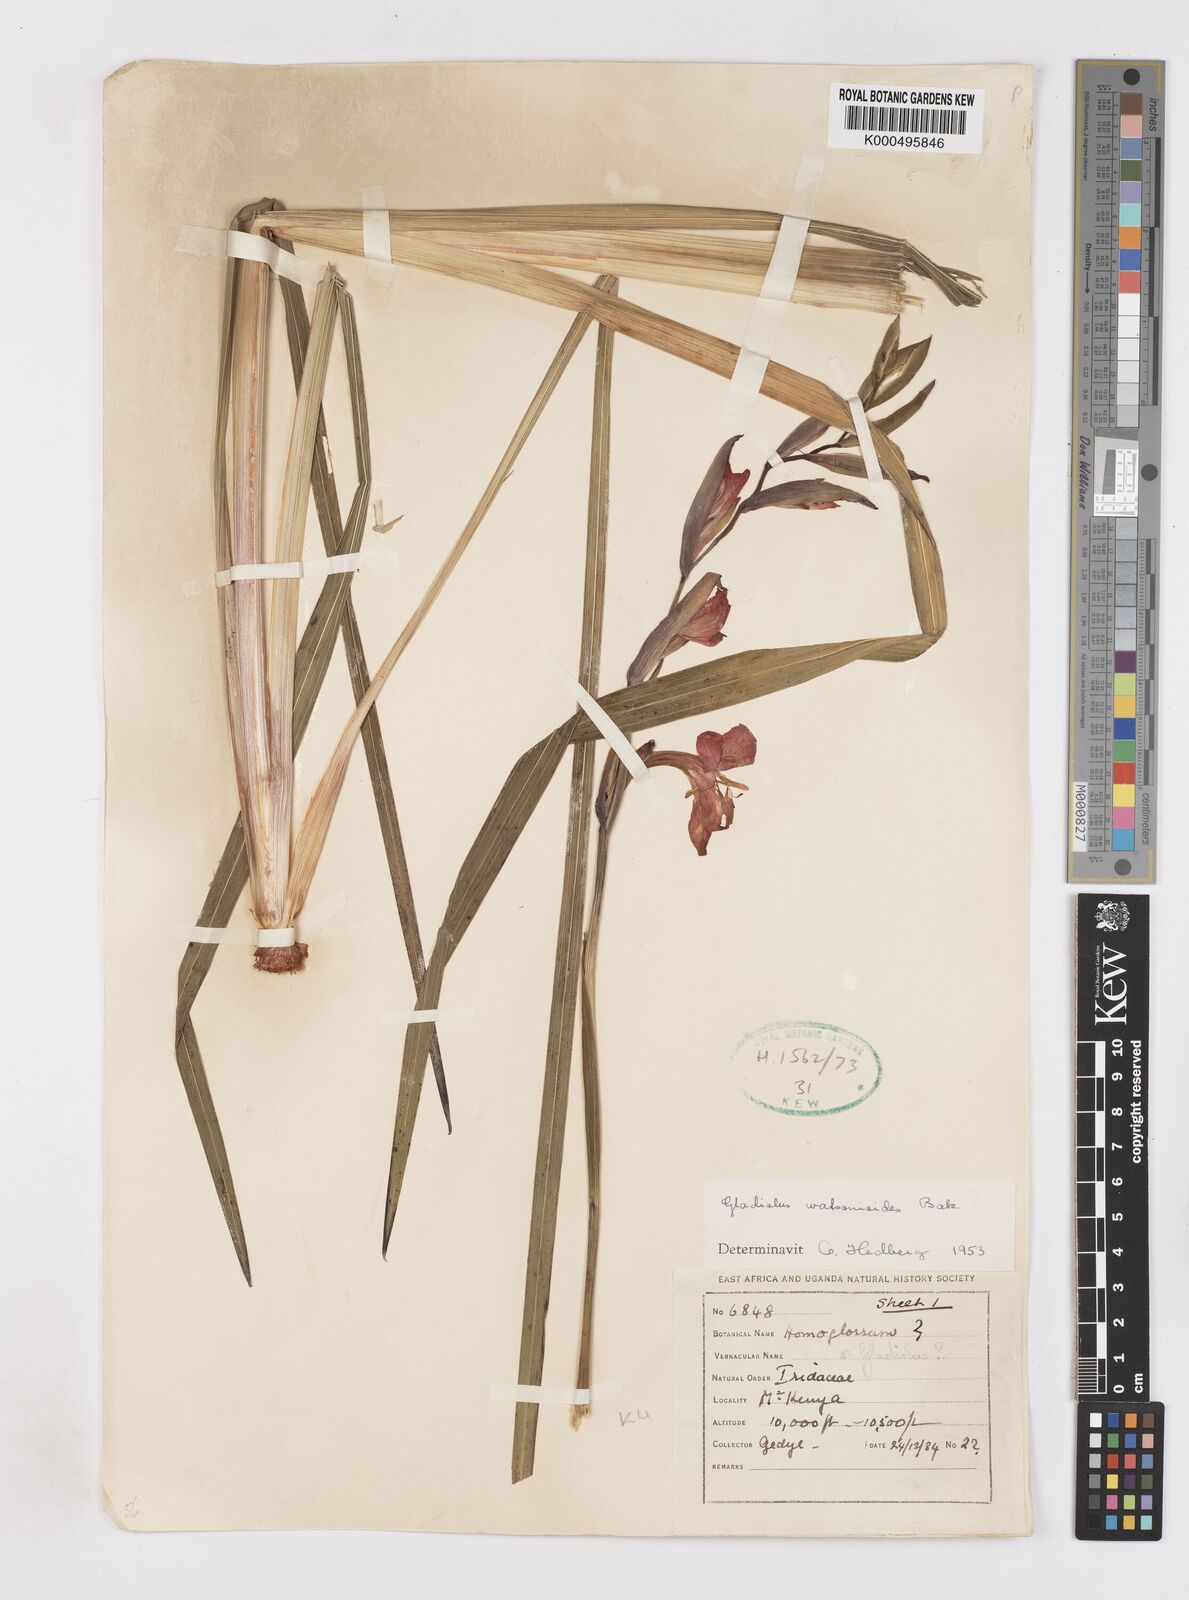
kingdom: Plantae
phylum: Tracheophyta
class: Liliopsida
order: Asparagales
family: Iridaceae
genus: Gladiolus
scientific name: Gladiolus watsonioides
